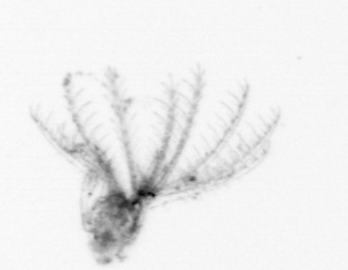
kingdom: Animalia
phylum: Arthropoda
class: Maxillopoda
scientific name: Maxillopoda
